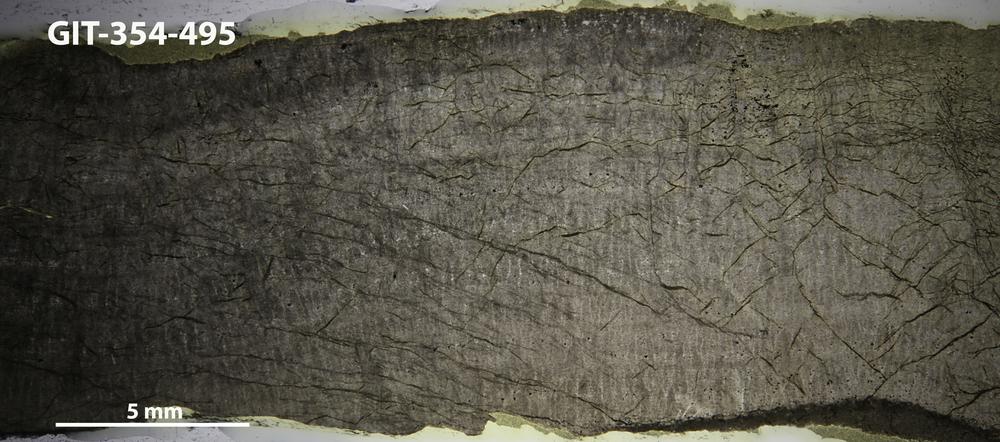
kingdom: Animalia
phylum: Porifera
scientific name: Porifera
